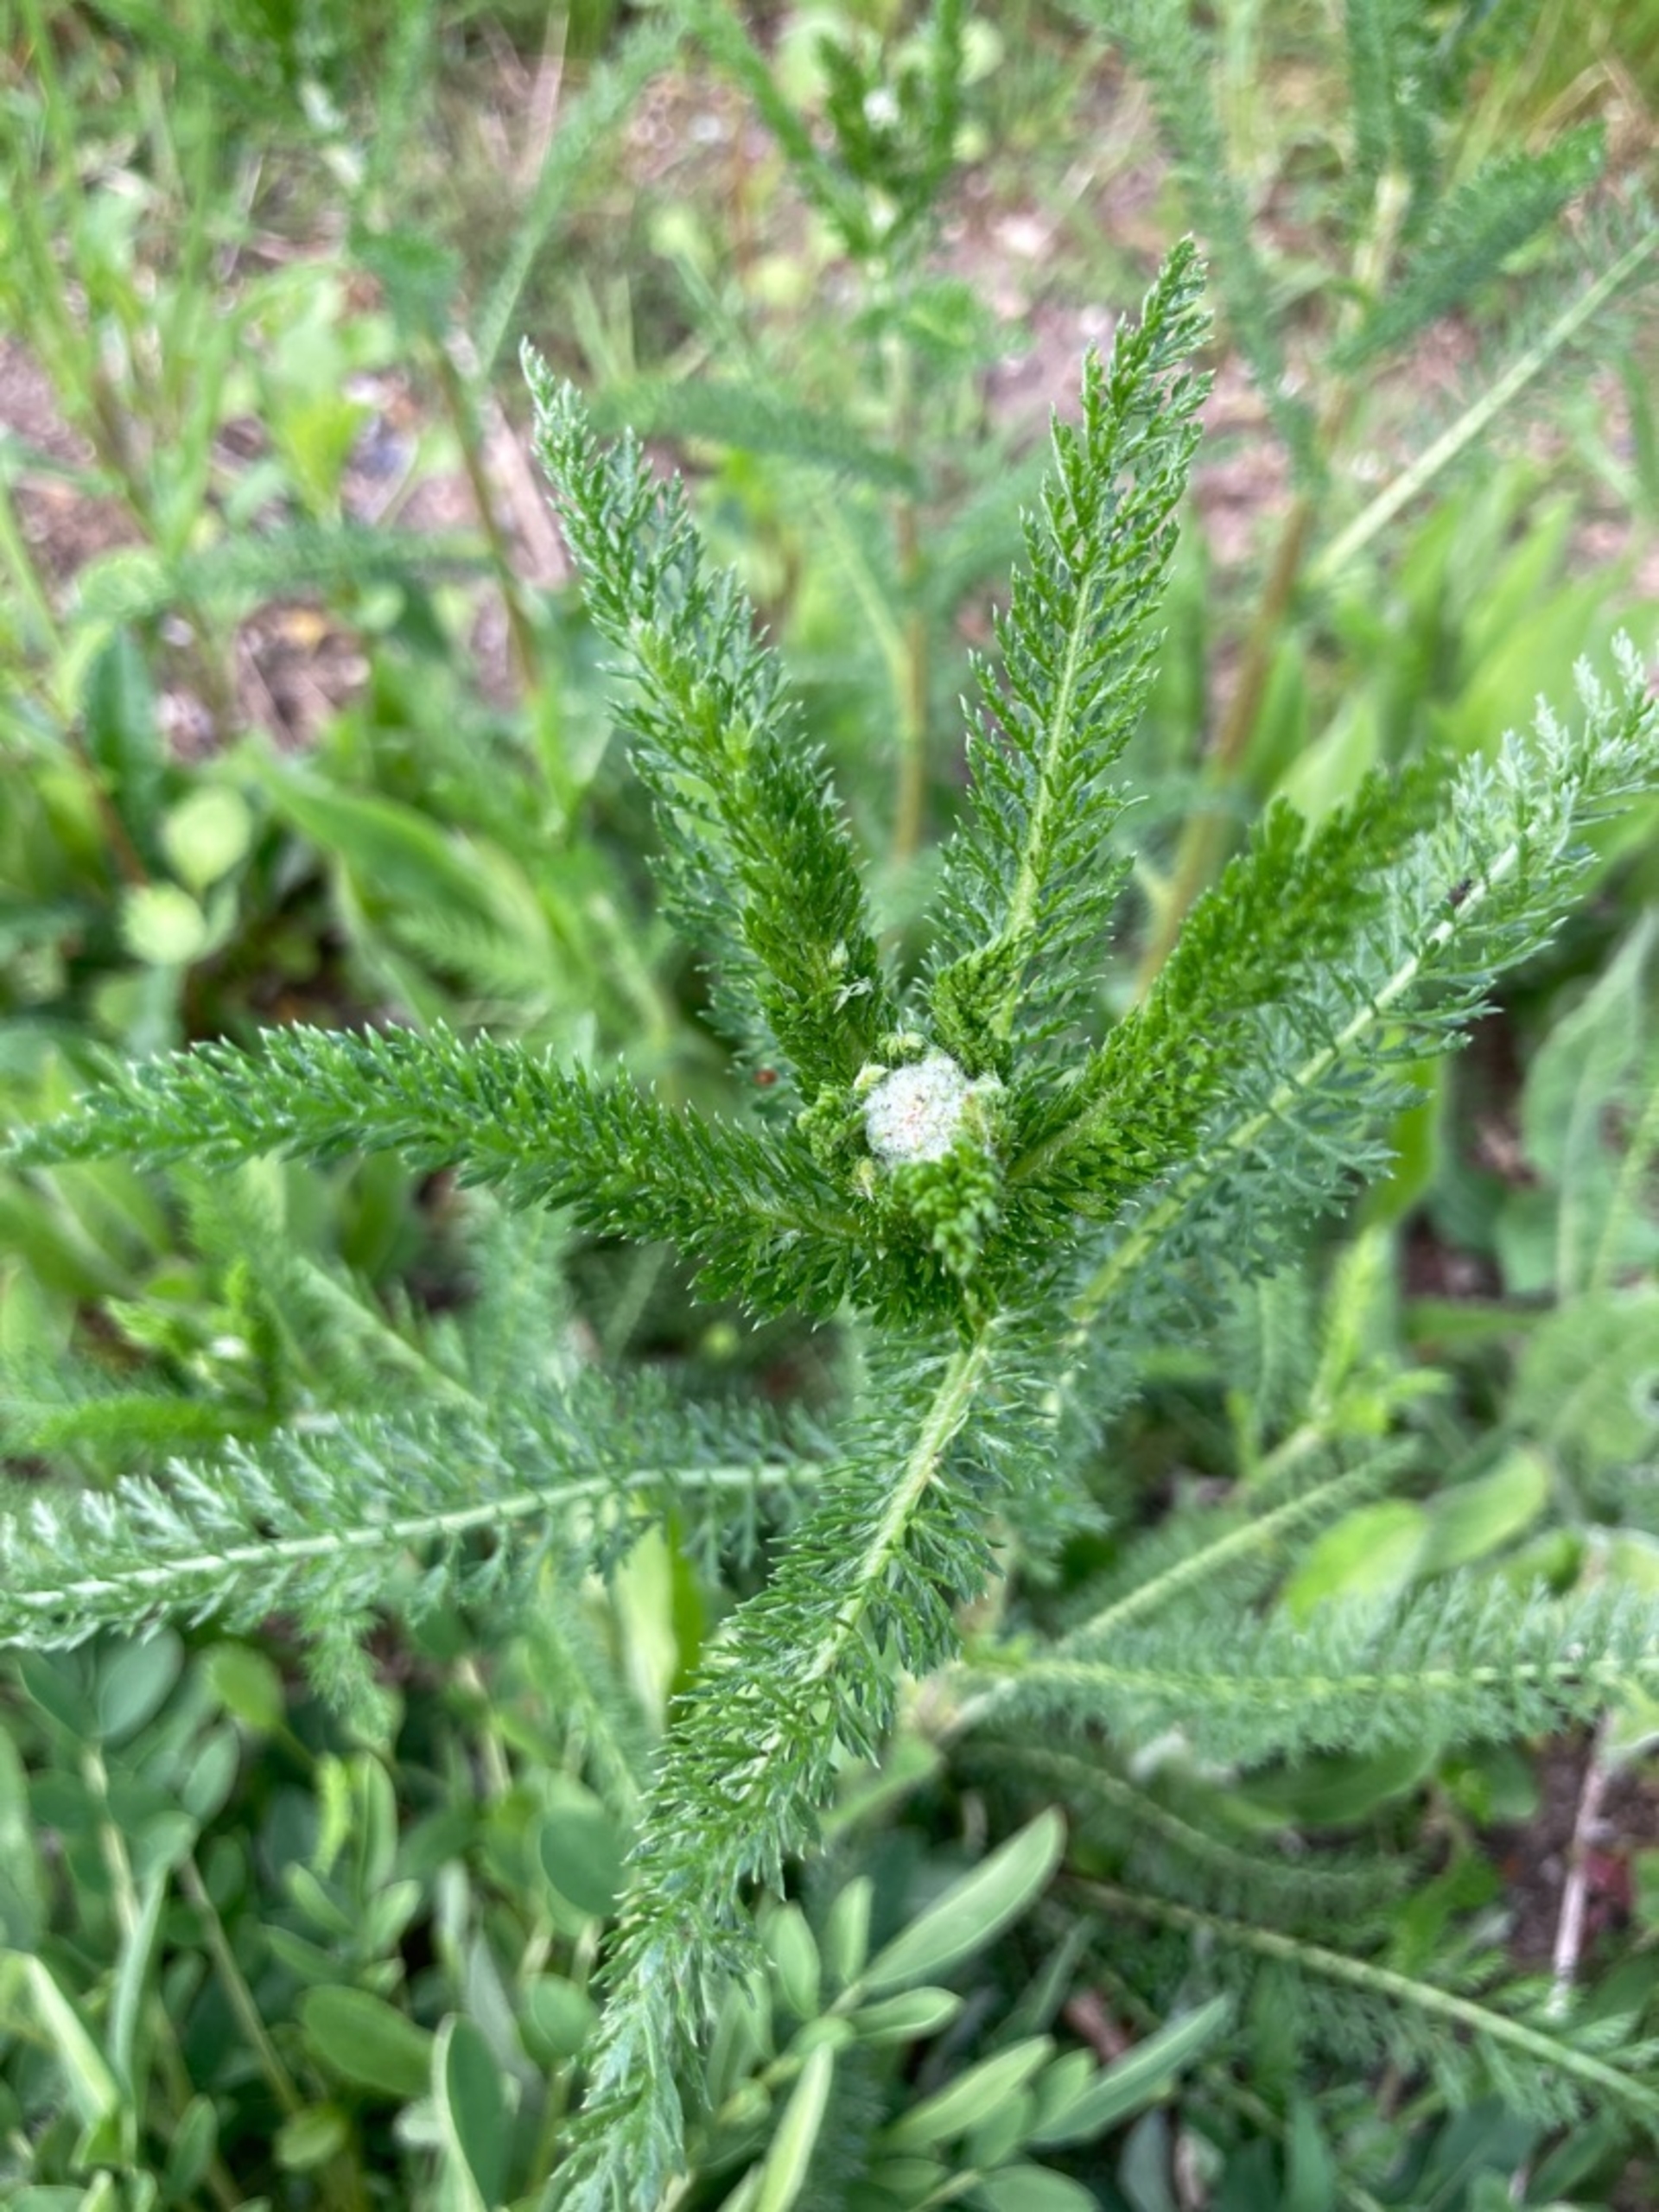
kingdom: Plantae
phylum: Tracheophyta
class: Magnoliopsida
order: Asterales
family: Asteraceae
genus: Achillea
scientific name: Achillea millefolium
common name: Almindelig røllike (underart)
